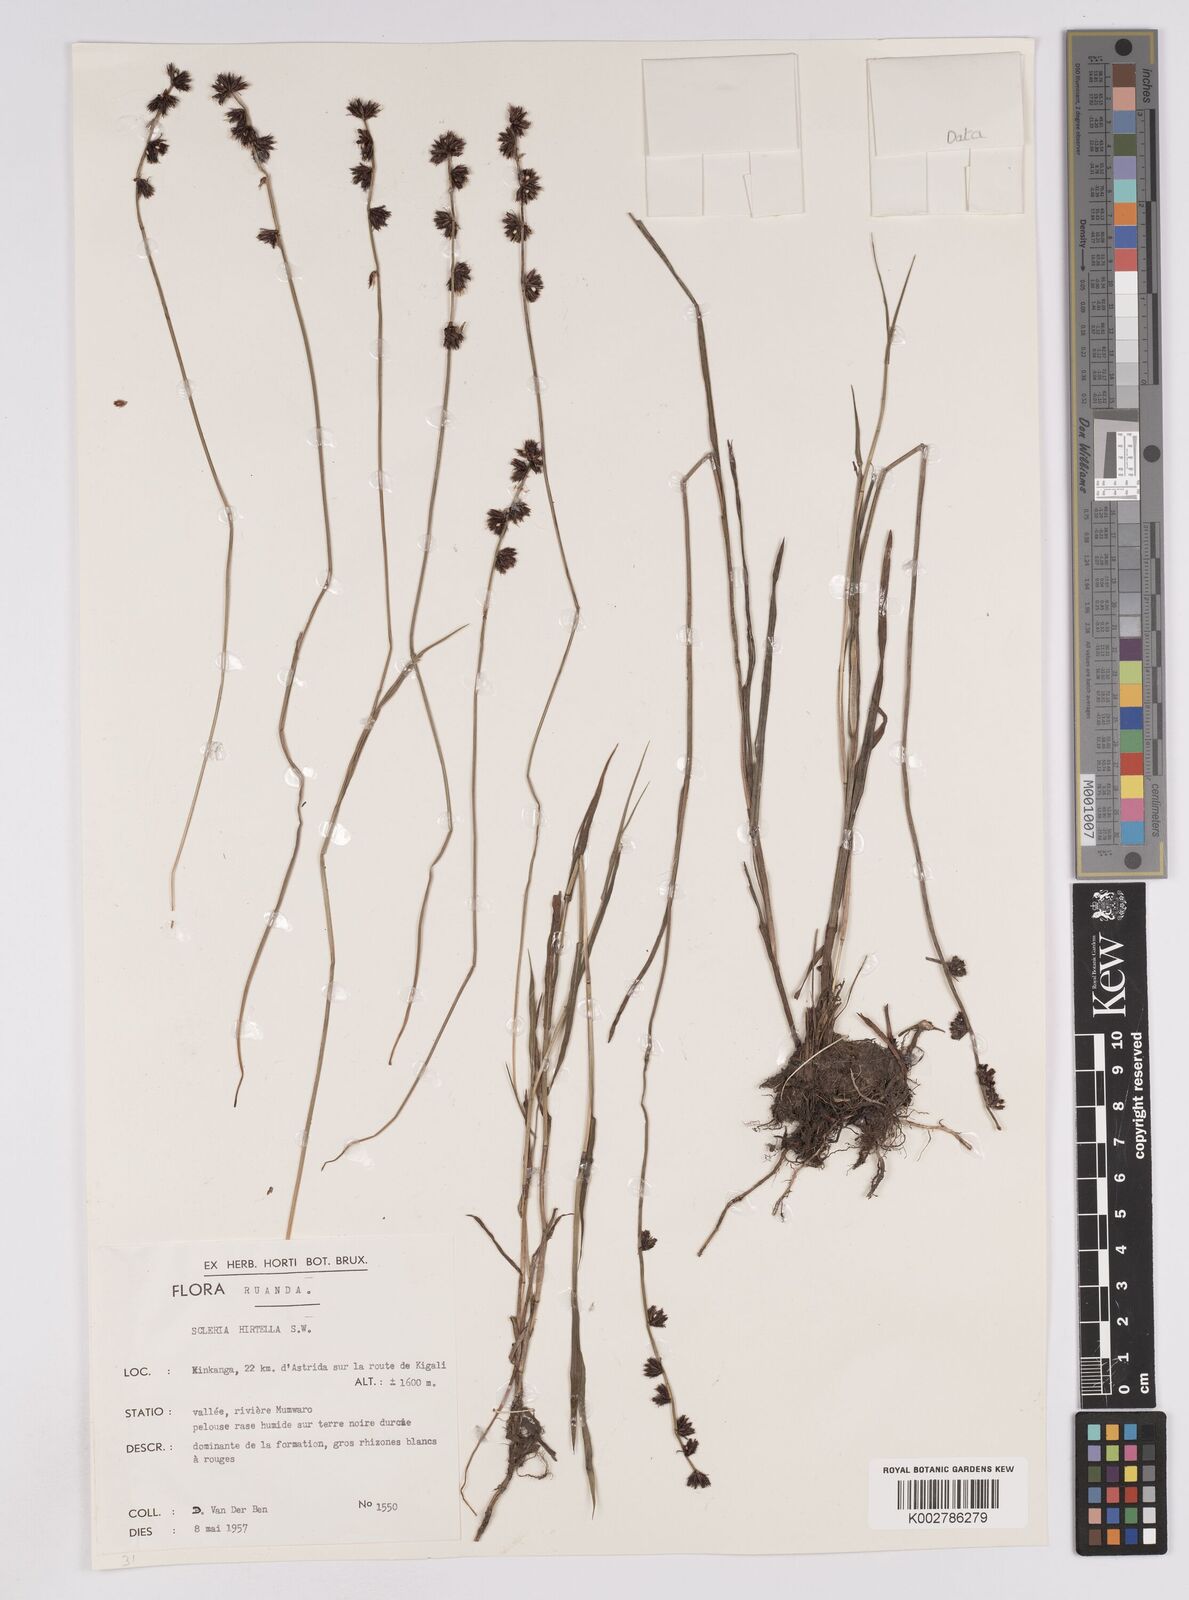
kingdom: Plantae
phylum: Tracheophyta
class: Liliopsida
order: Poales
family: Cyperaceae
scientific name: Cyperaceae
